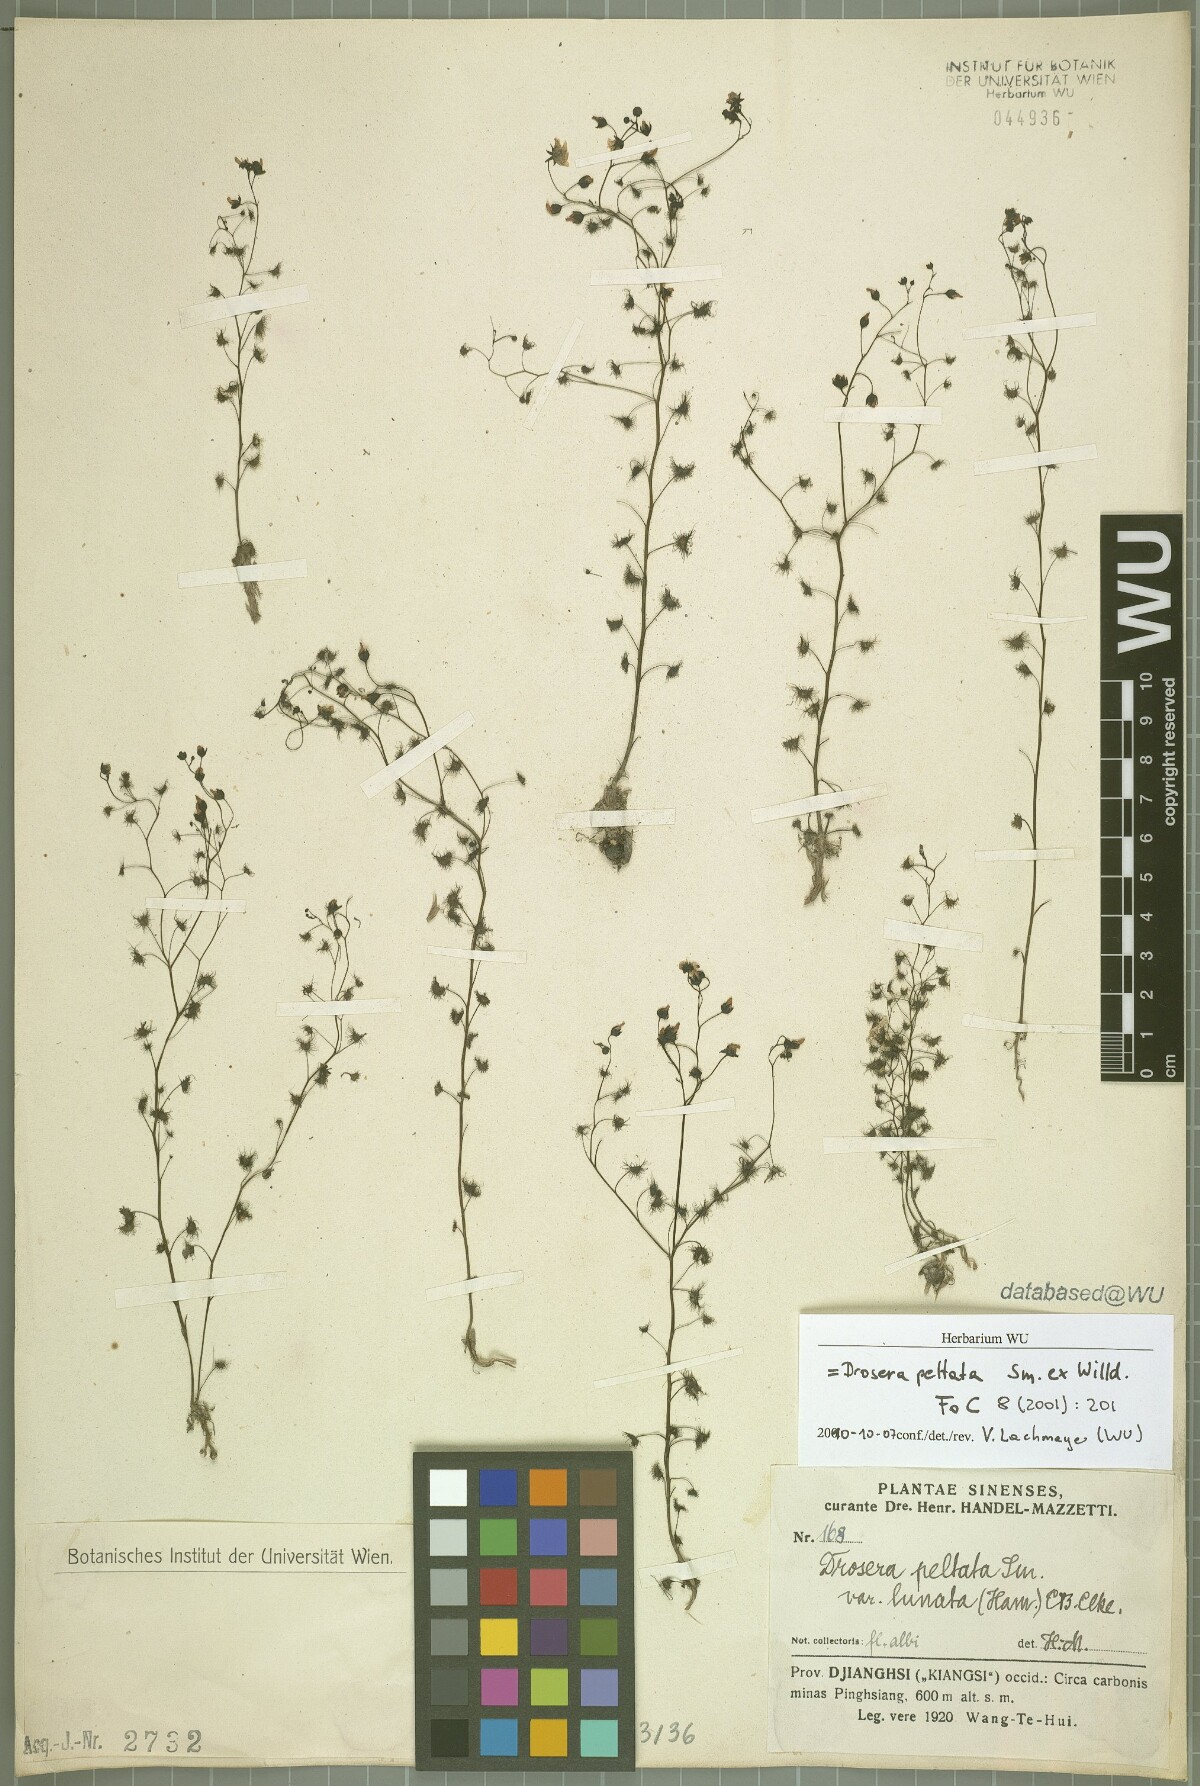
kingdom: Plantae
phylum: Tracheophyta
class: Magnoliopsida
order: Caryophyllales
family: Droseraceae
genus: Drosera
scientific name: Drosera peltata
